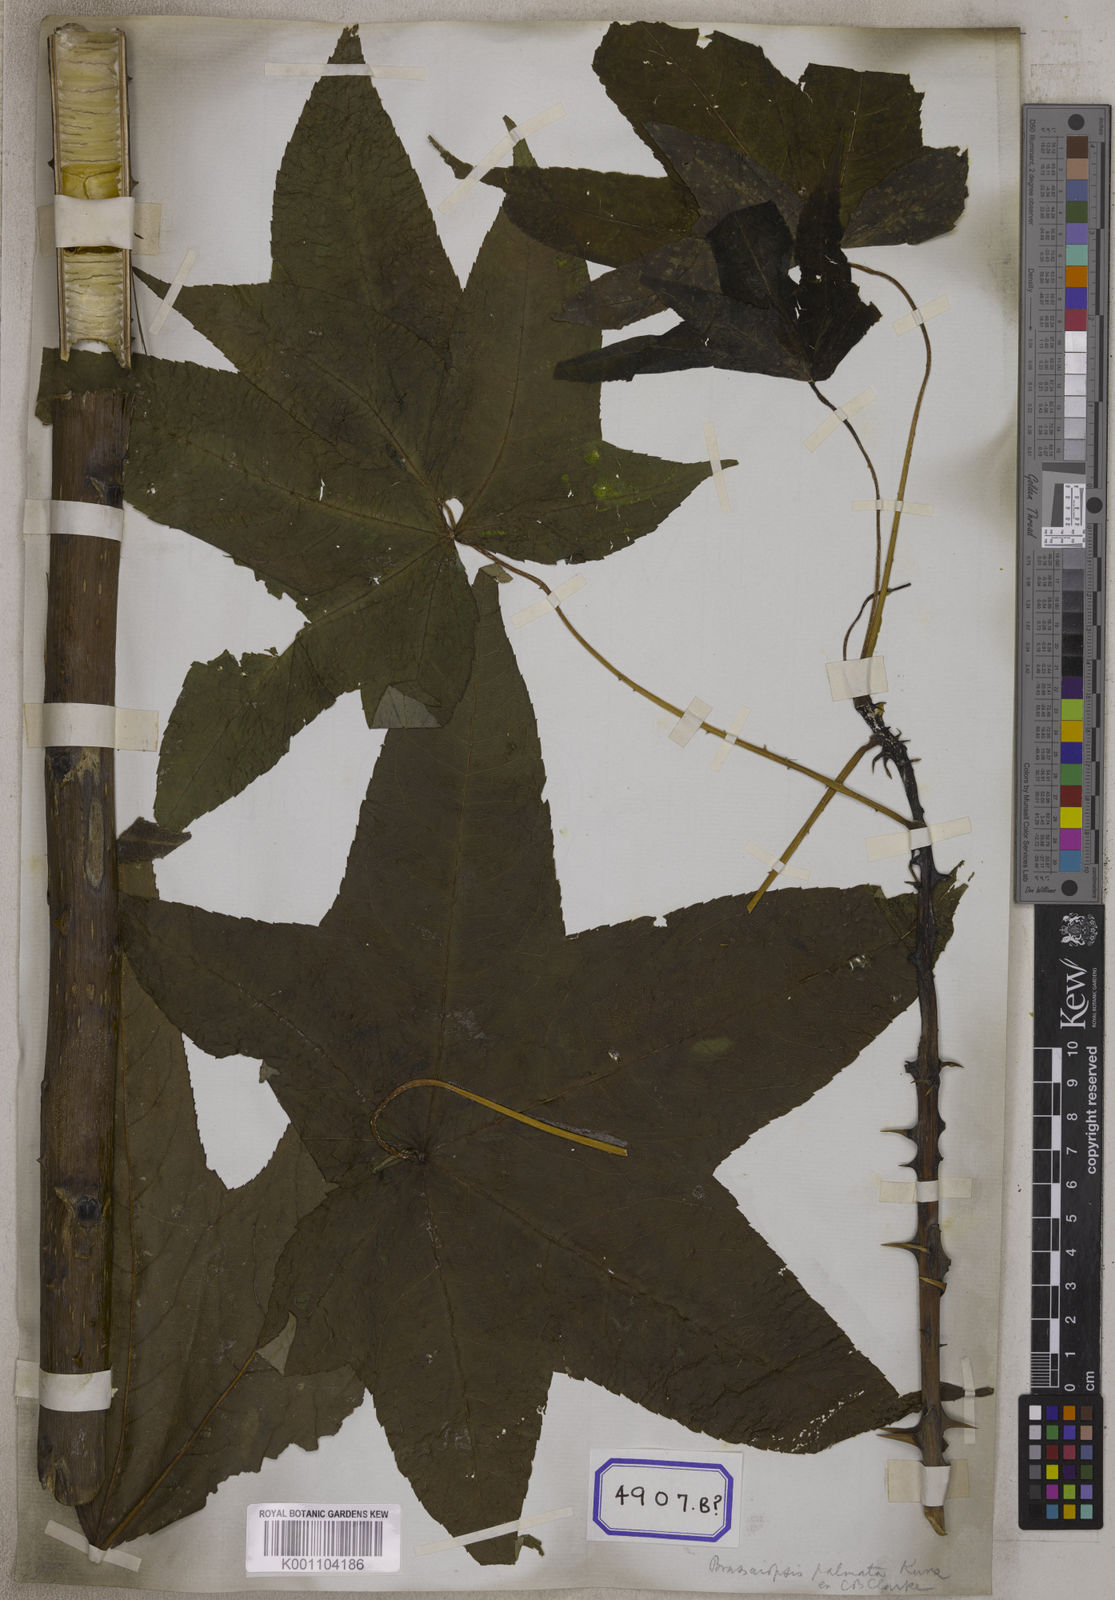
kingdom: Plantae
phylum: Tracheophyta
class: Magnoliopsida
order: Apiales
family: Araliaceae
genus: Brassaiopsis
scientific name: Brassaiopsis hainla
